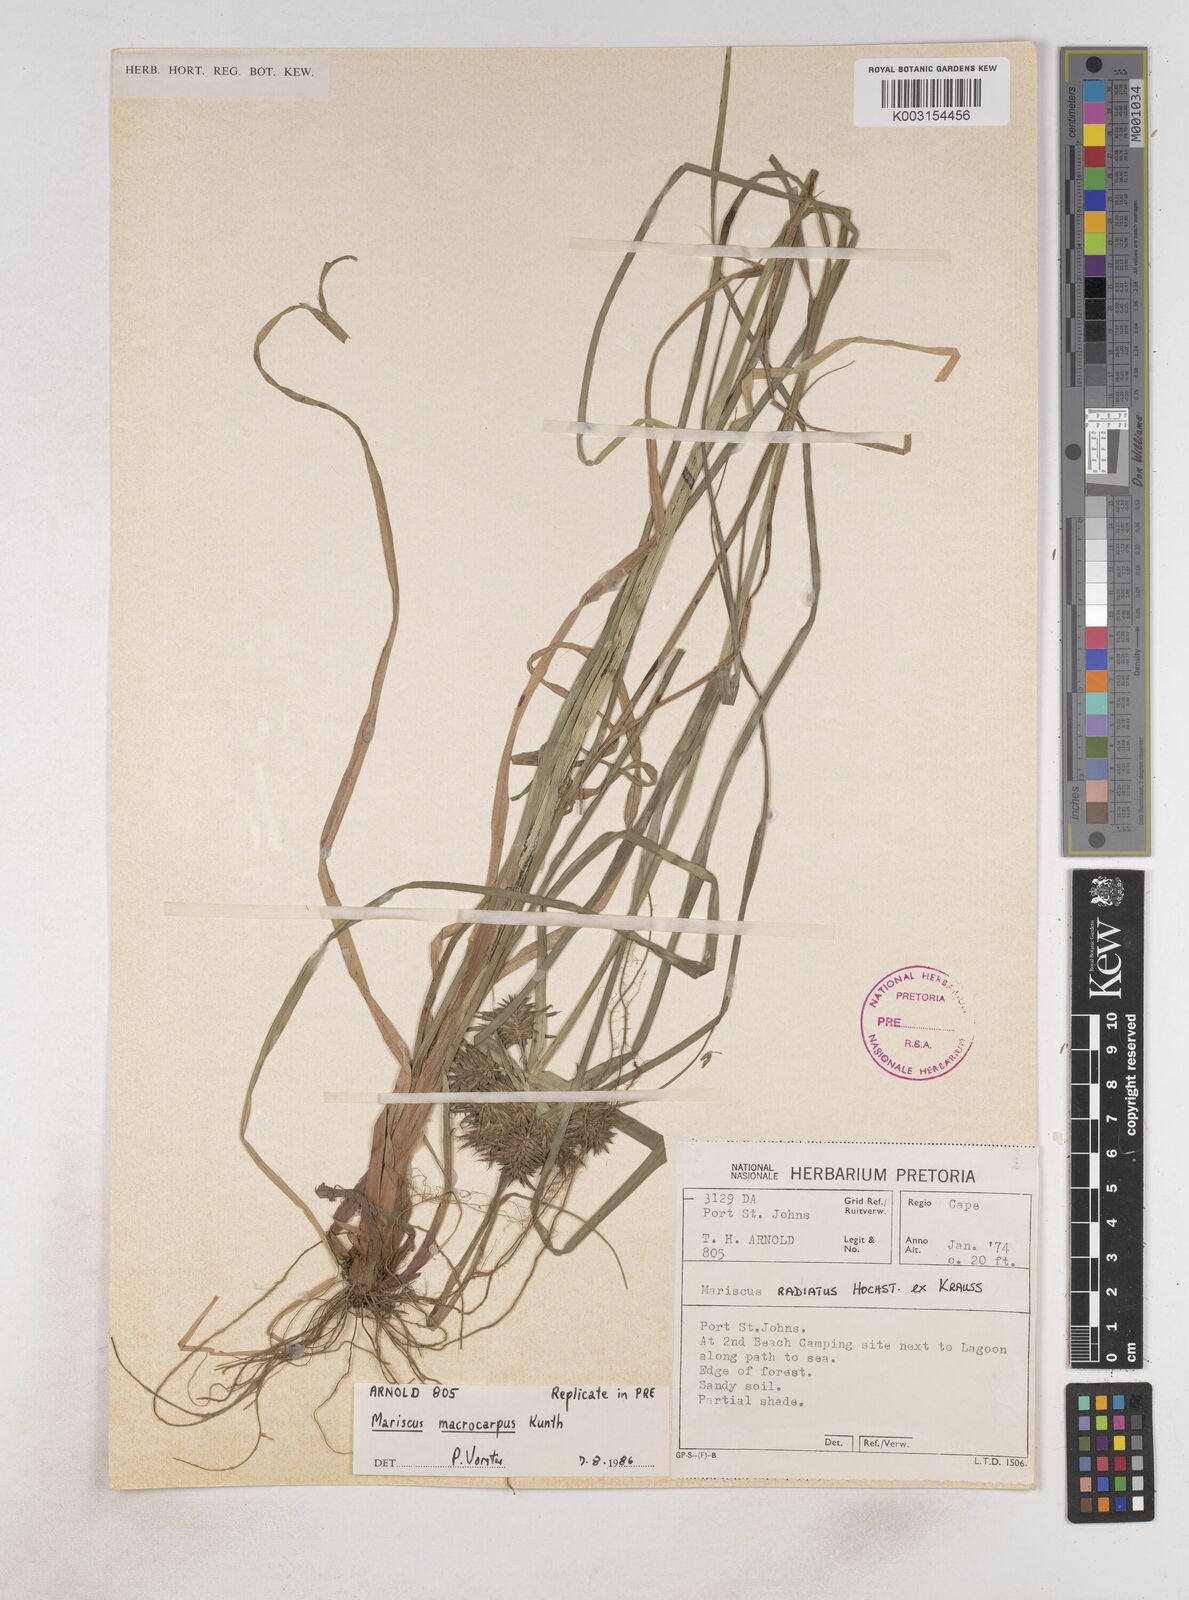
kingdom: Plantae
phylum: Tracheophyta
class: Liliopsida
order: Poales
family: Cyperaceae
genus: Cyperus
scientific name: Cyperus macrocarpus
